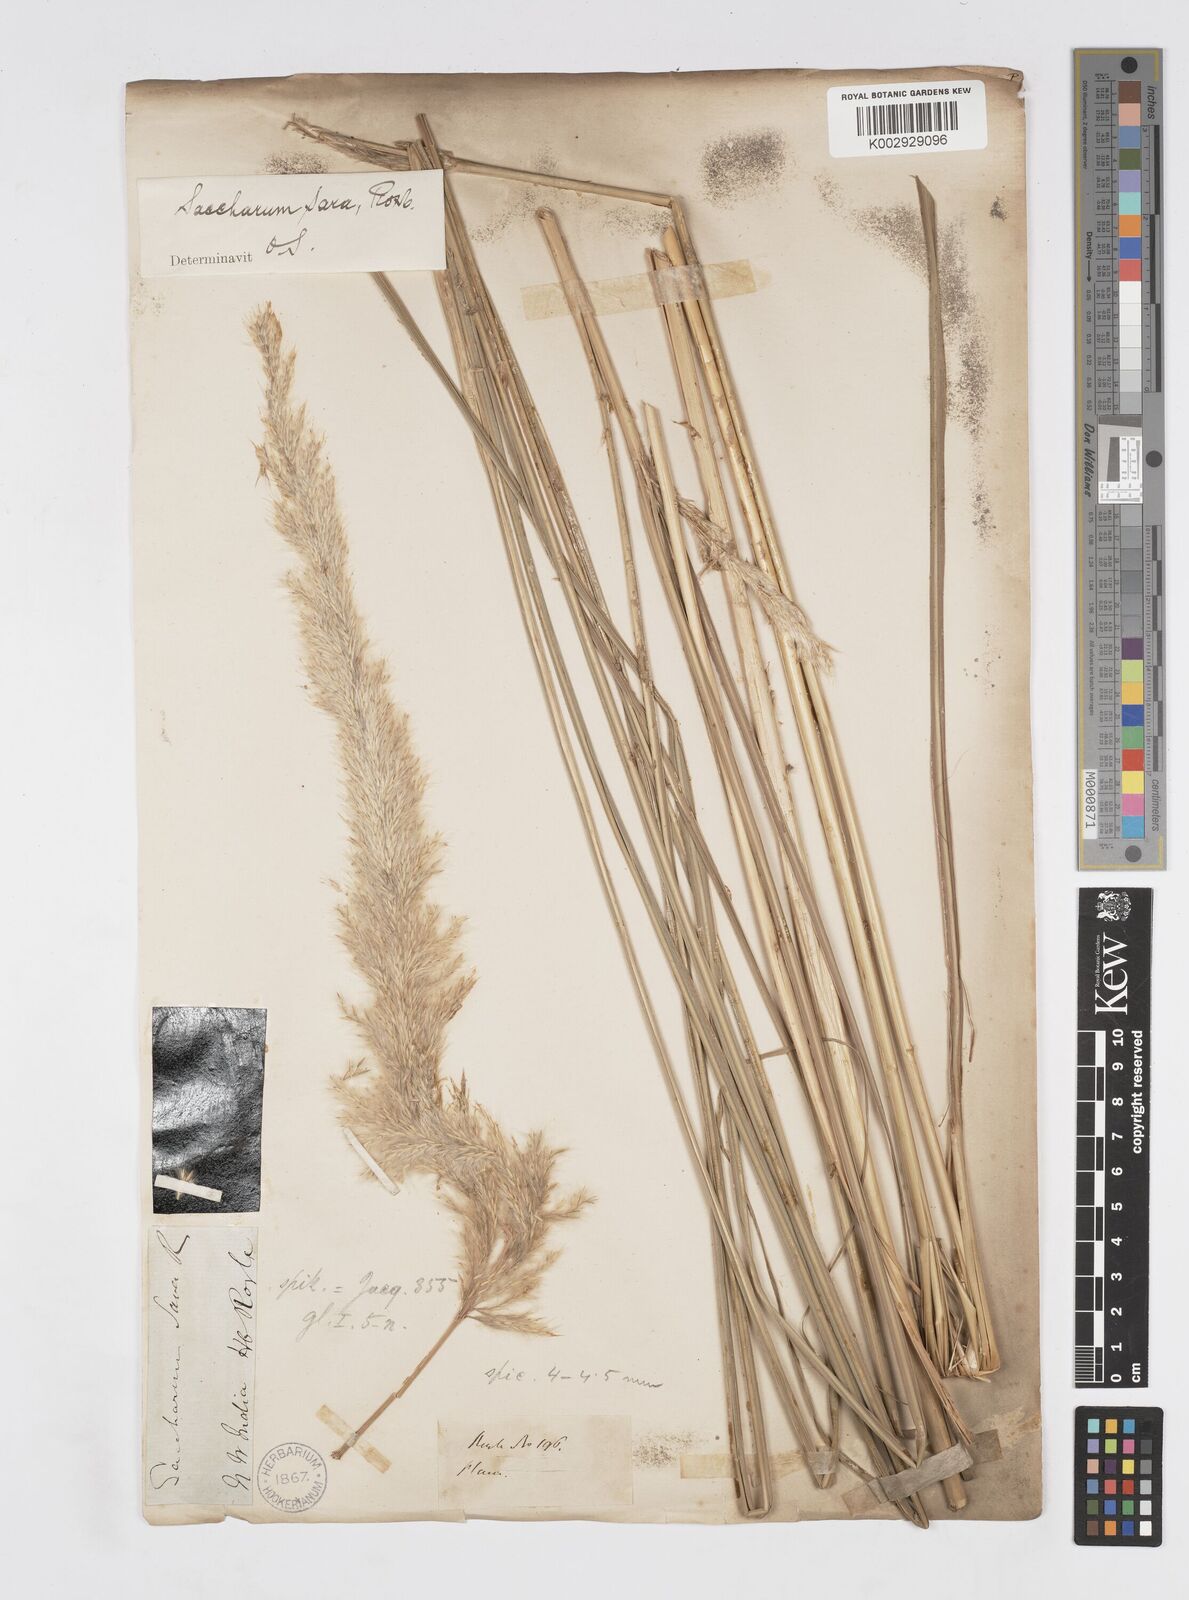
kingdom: Plantae
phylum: Tracheophyta
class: Liliopsida
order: Poales
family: Poaceae
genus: Tripidium
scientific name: Tripidium bengalense
